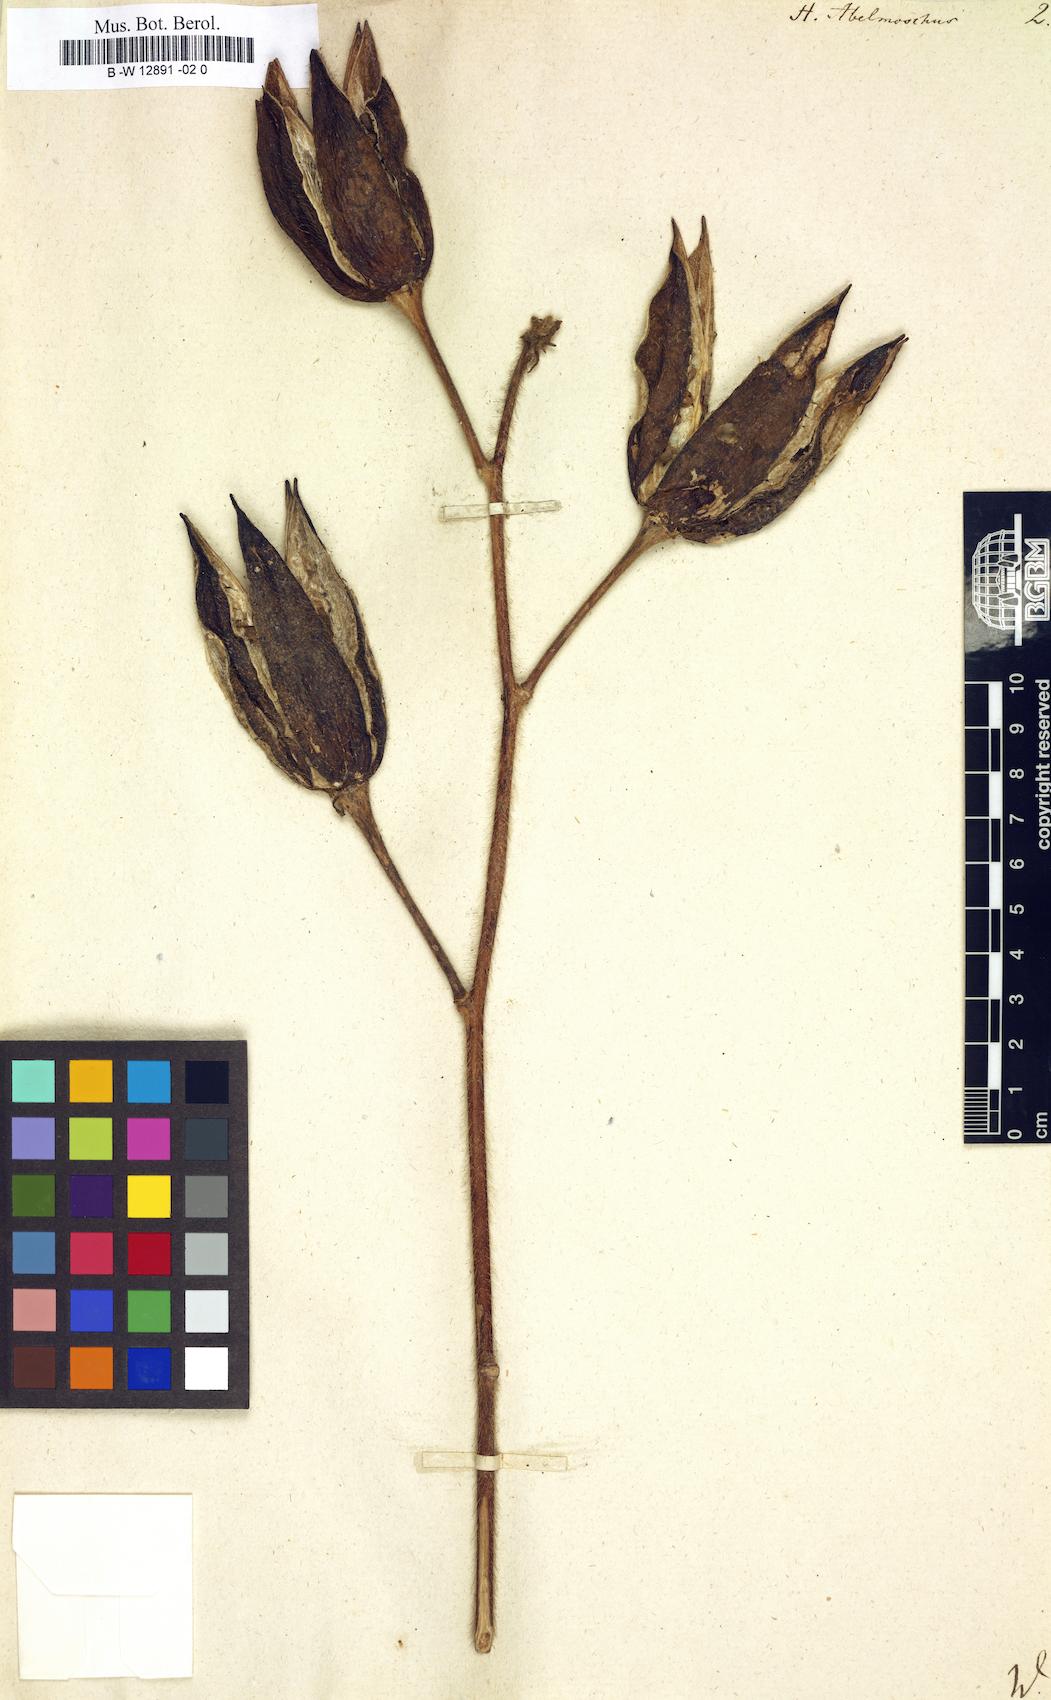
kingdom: Plantae
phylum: Tracheophyta
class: Magnoliopsida
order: Malvales
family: Malvaceae
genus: Abelmoschus
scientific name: Abelmoschus moschatus
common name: Musk okra
